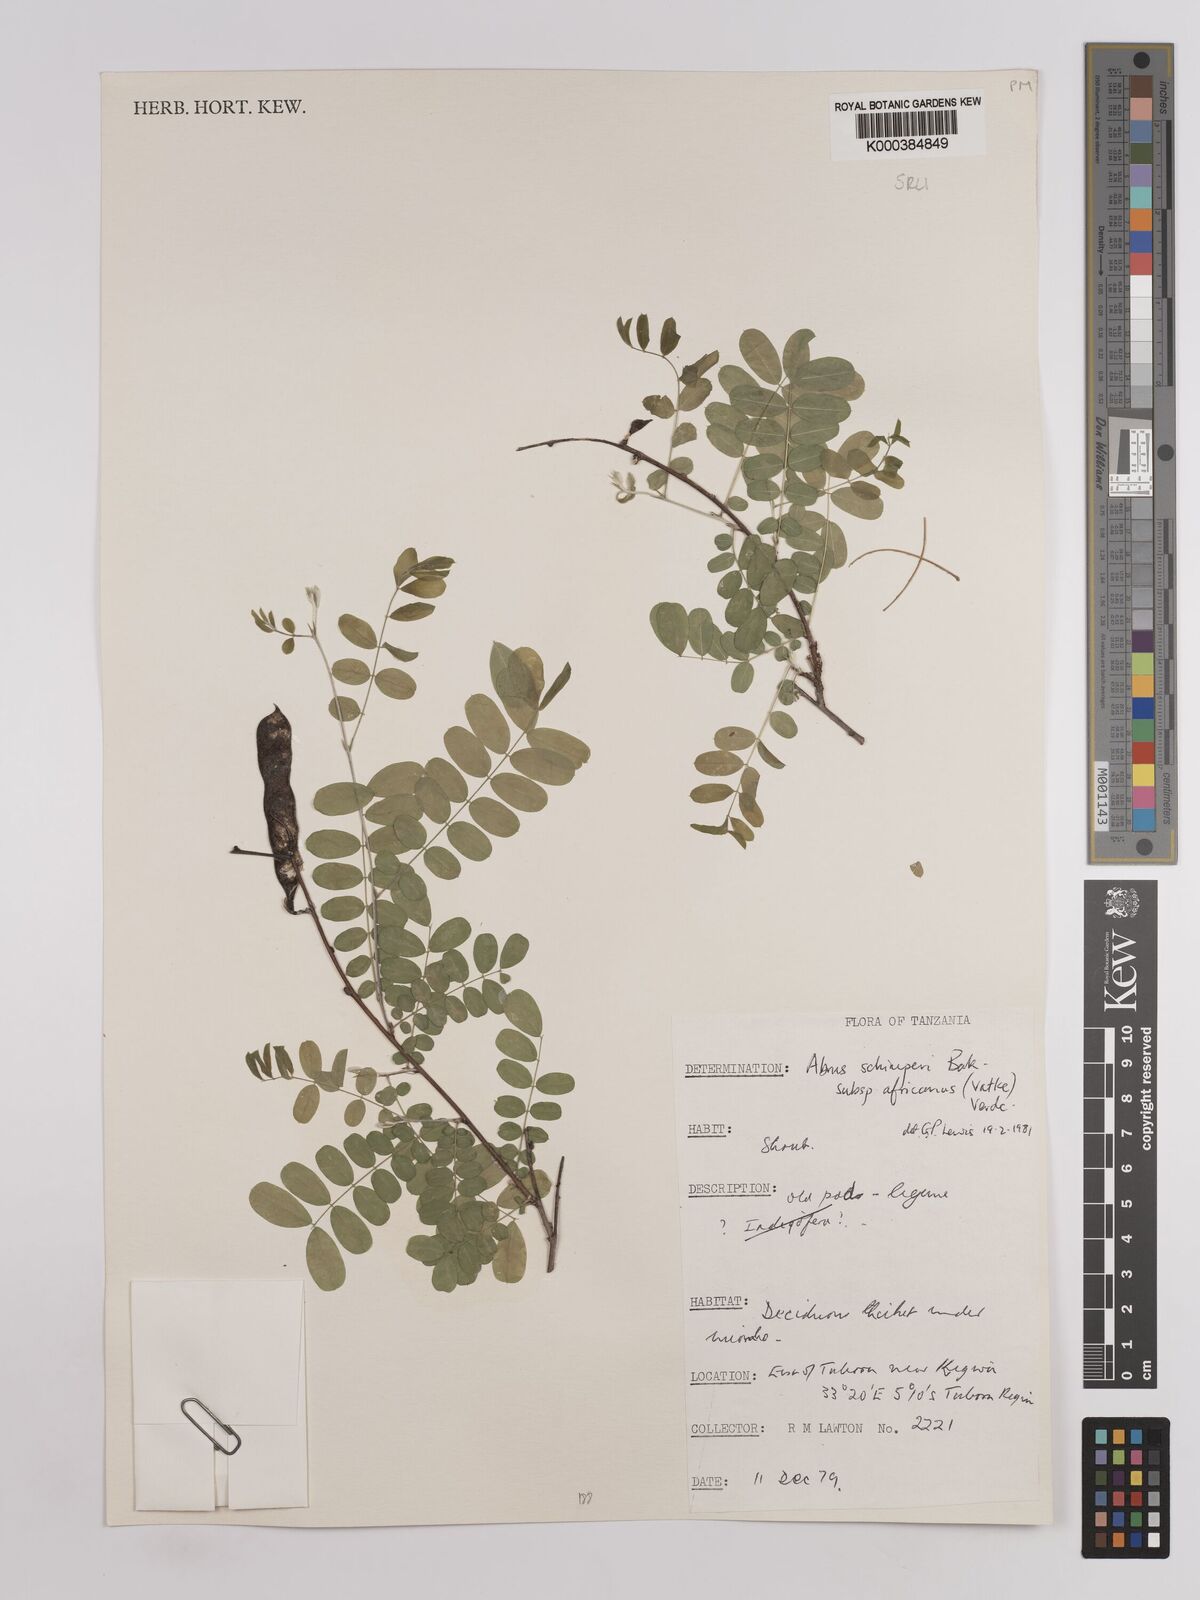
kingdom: Plantae
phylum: Tracheophyta
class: Magnoliopsida
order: Fabales
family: Fabaceae
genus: Abrus
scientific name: Abrus fruticulosus
